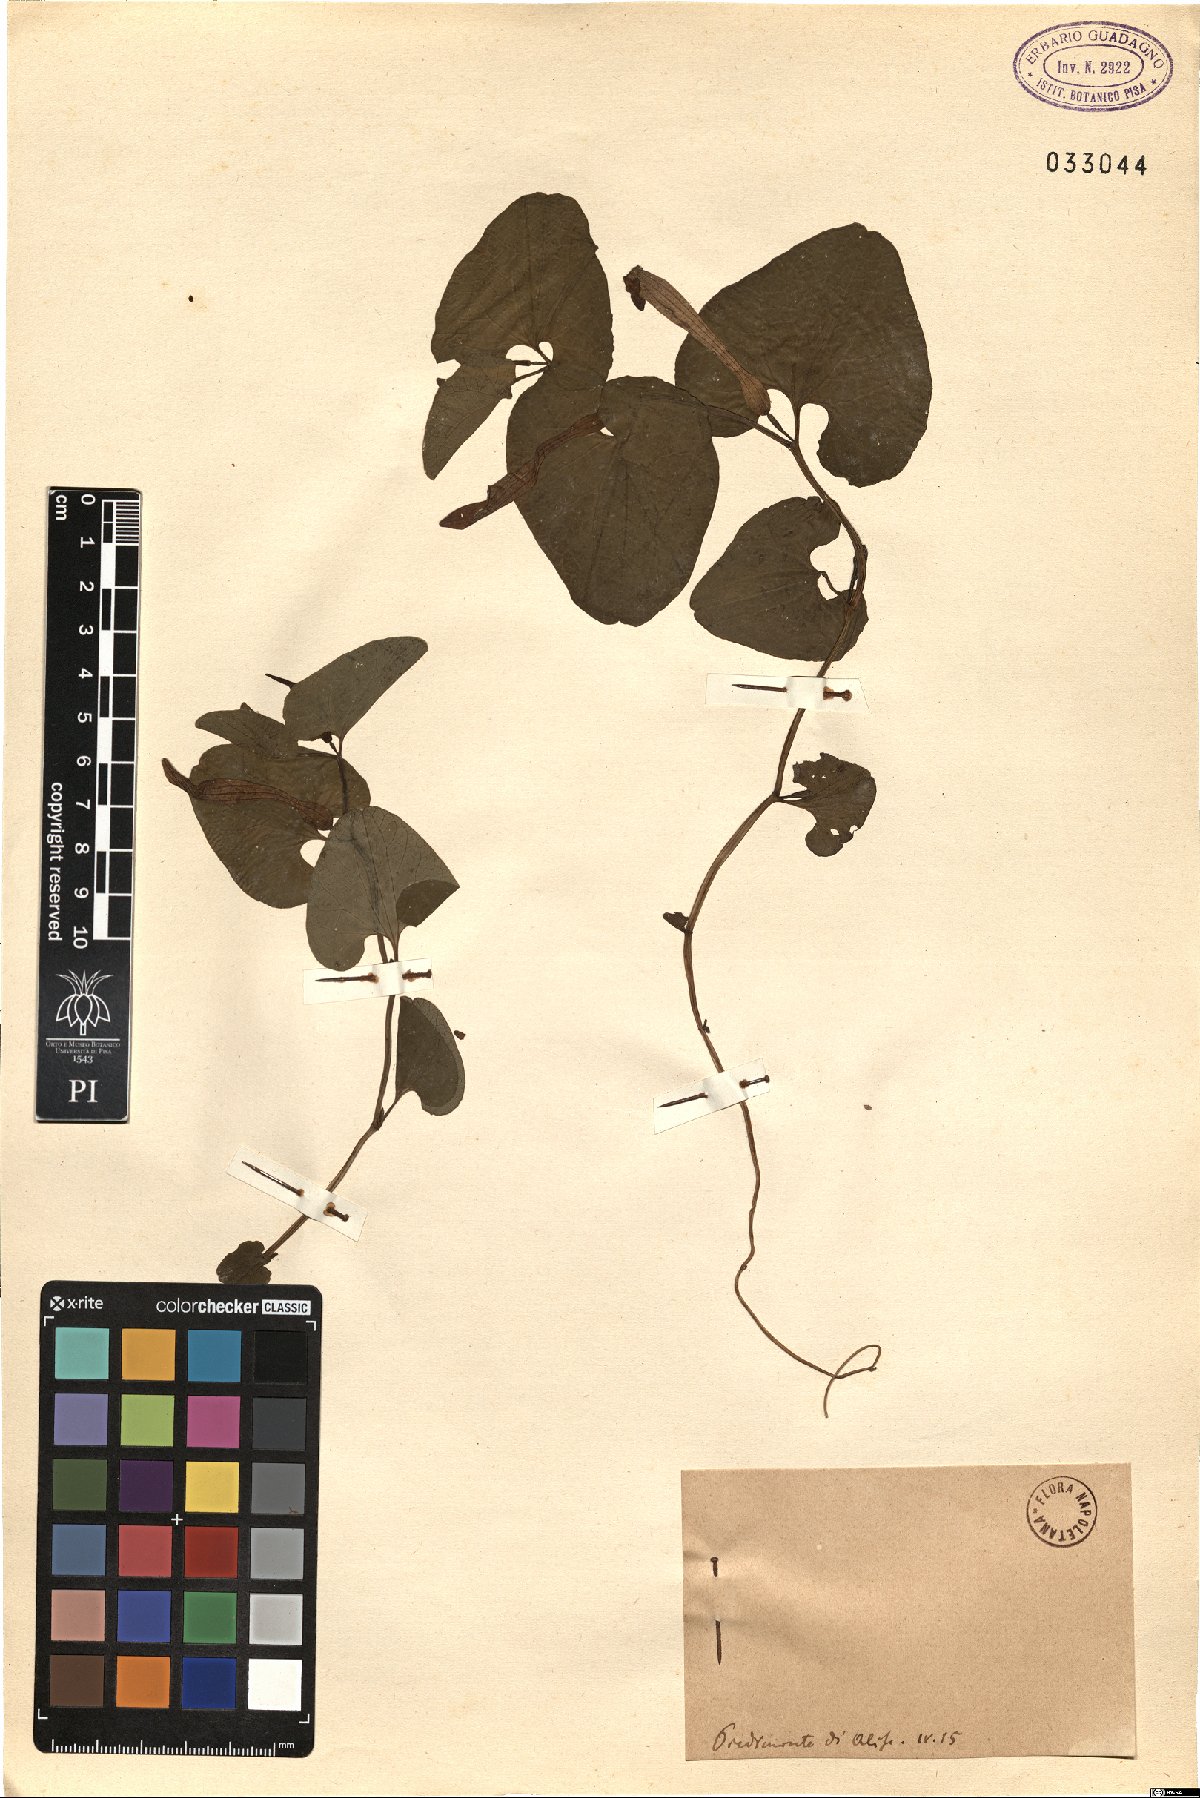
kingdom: Plantae
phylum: Tracheophyta
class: Magnoliopsida
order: Piperales
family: Aristolochiaceae
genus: Aristolochia
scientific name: Aristolochia
